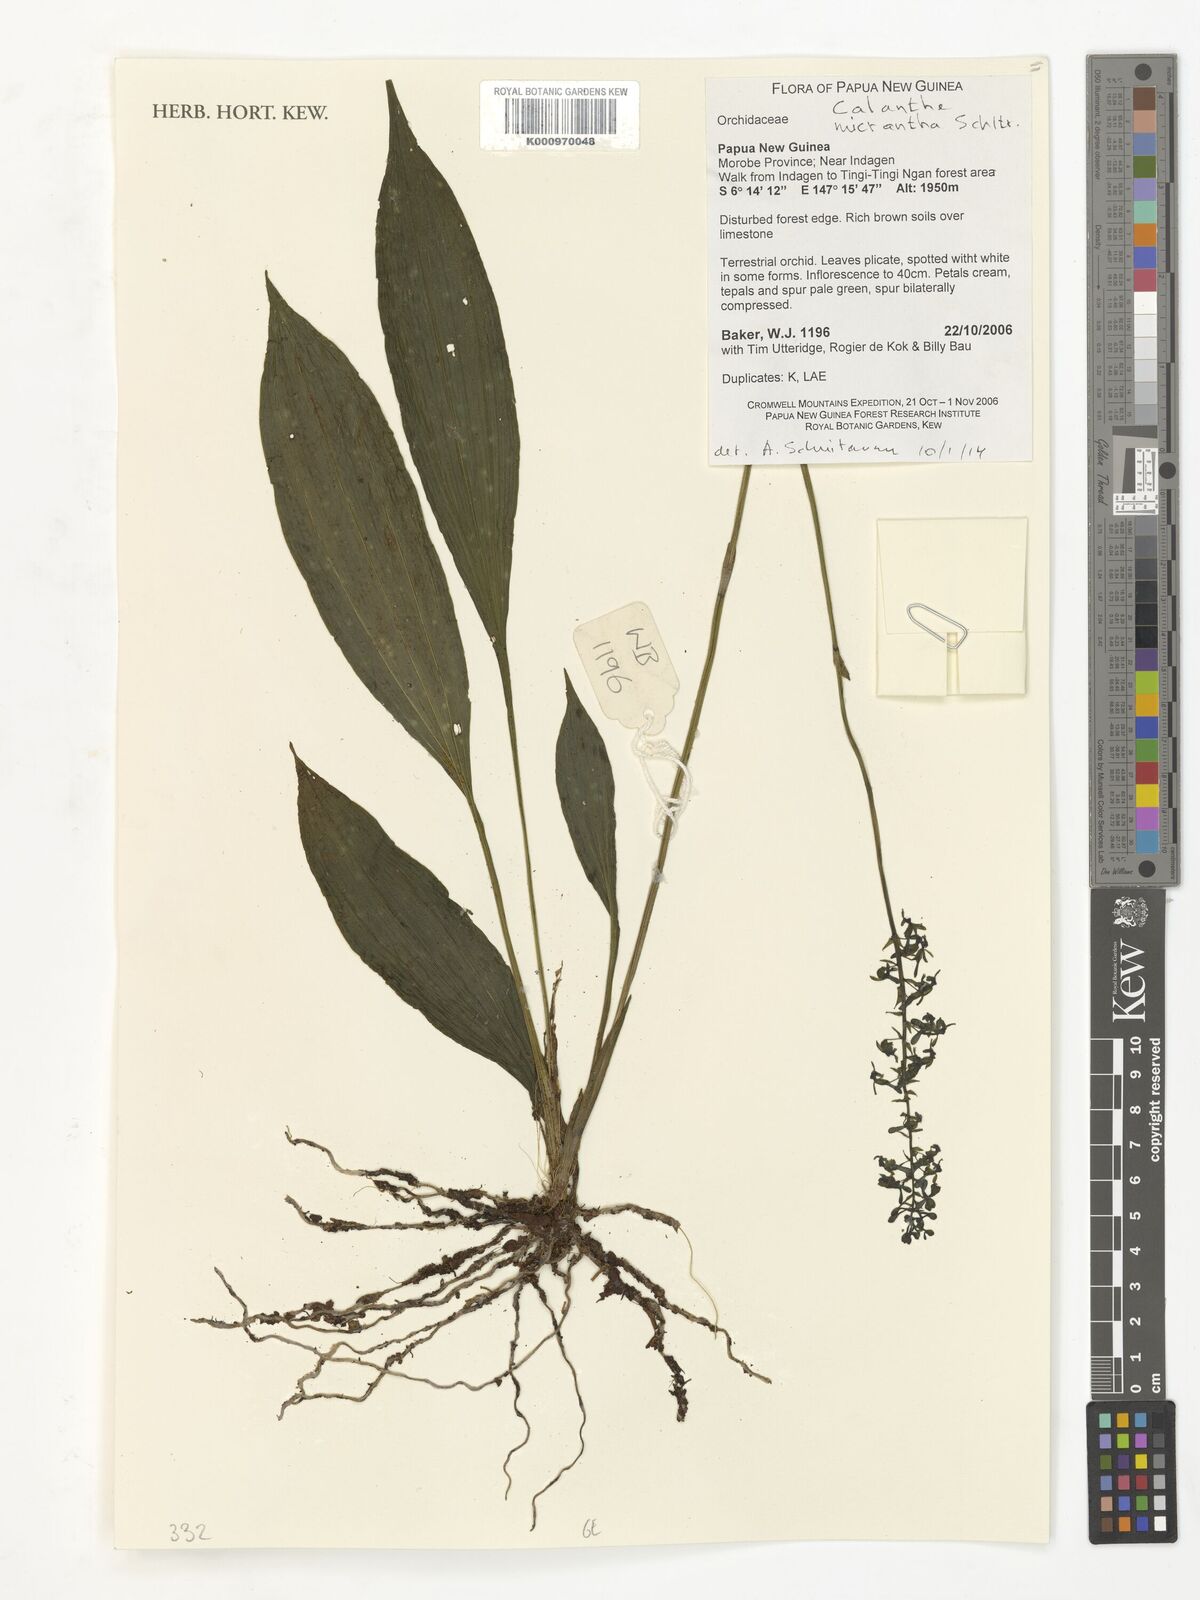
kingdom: Plantae
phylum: Tracheophyta
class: Liliopsida
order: Asparagales
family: Orchidaceae
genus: Calanthe
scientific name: Calanthe micrantha
